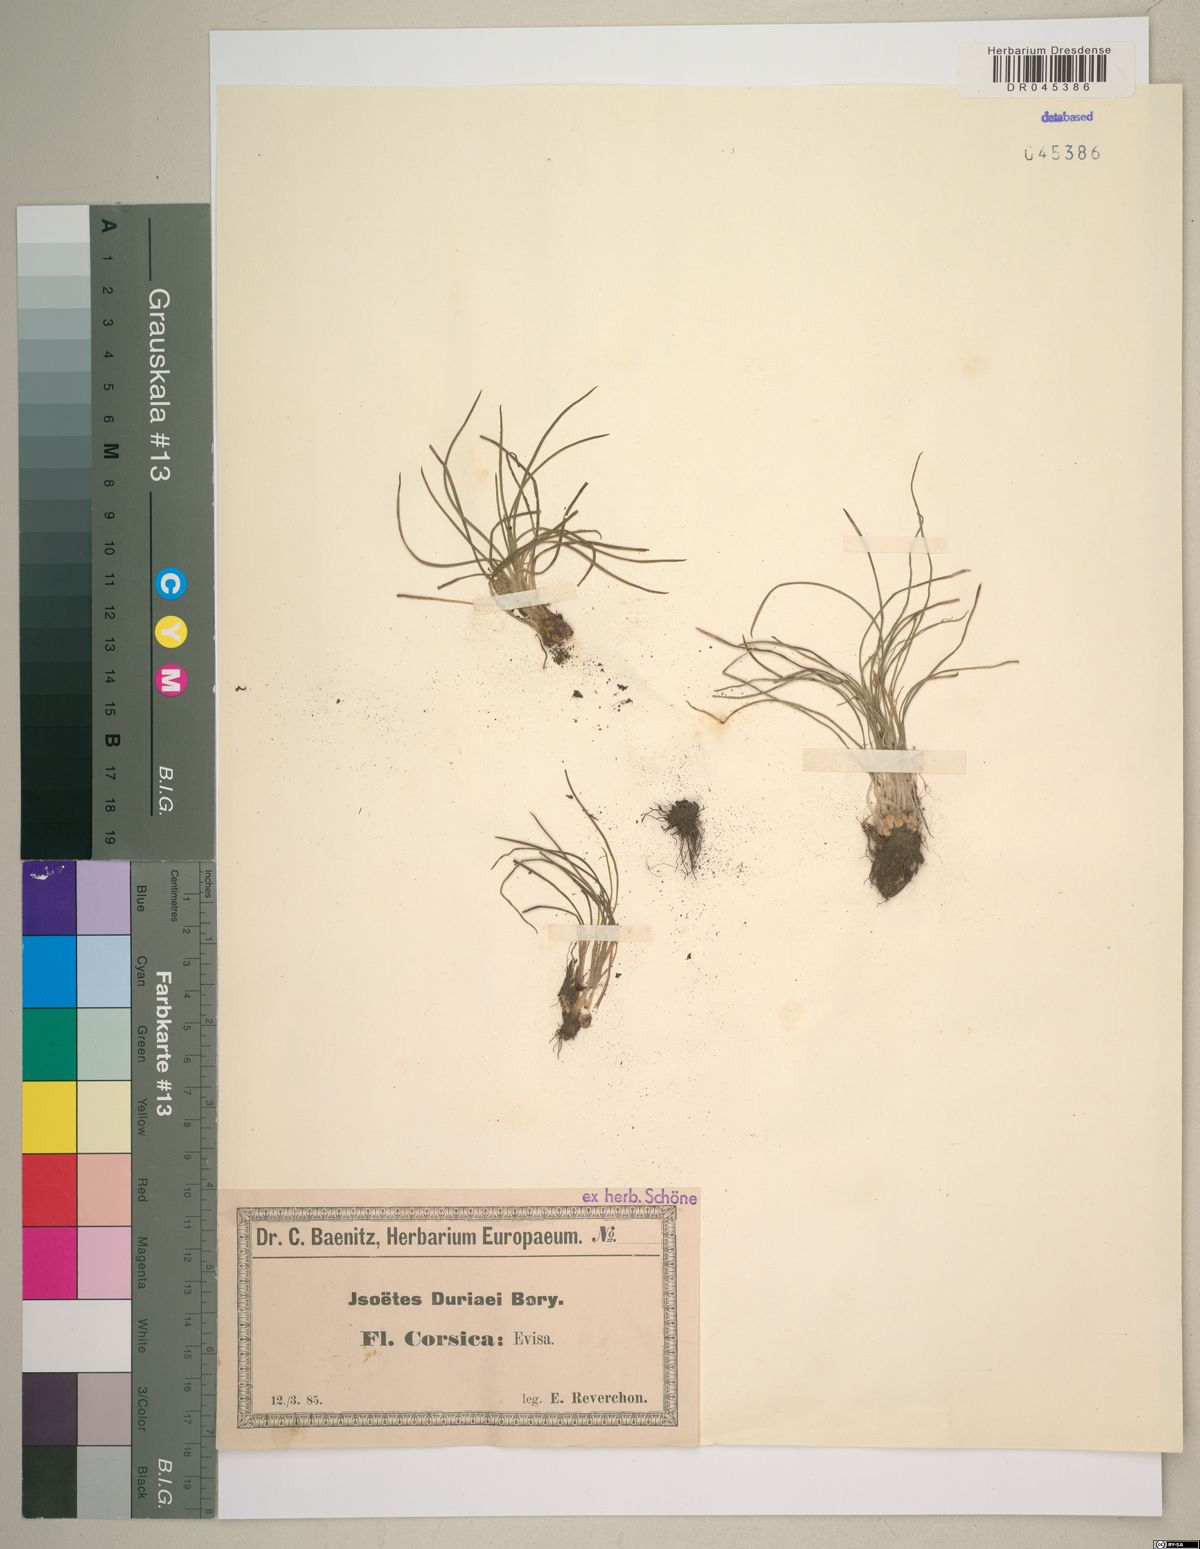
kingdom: Plantae
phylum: Tracheophyta
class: Lycopodiopsida
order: Isoetales
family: Isoetaceae
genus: Isoetes
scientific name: Isoetes duriei
